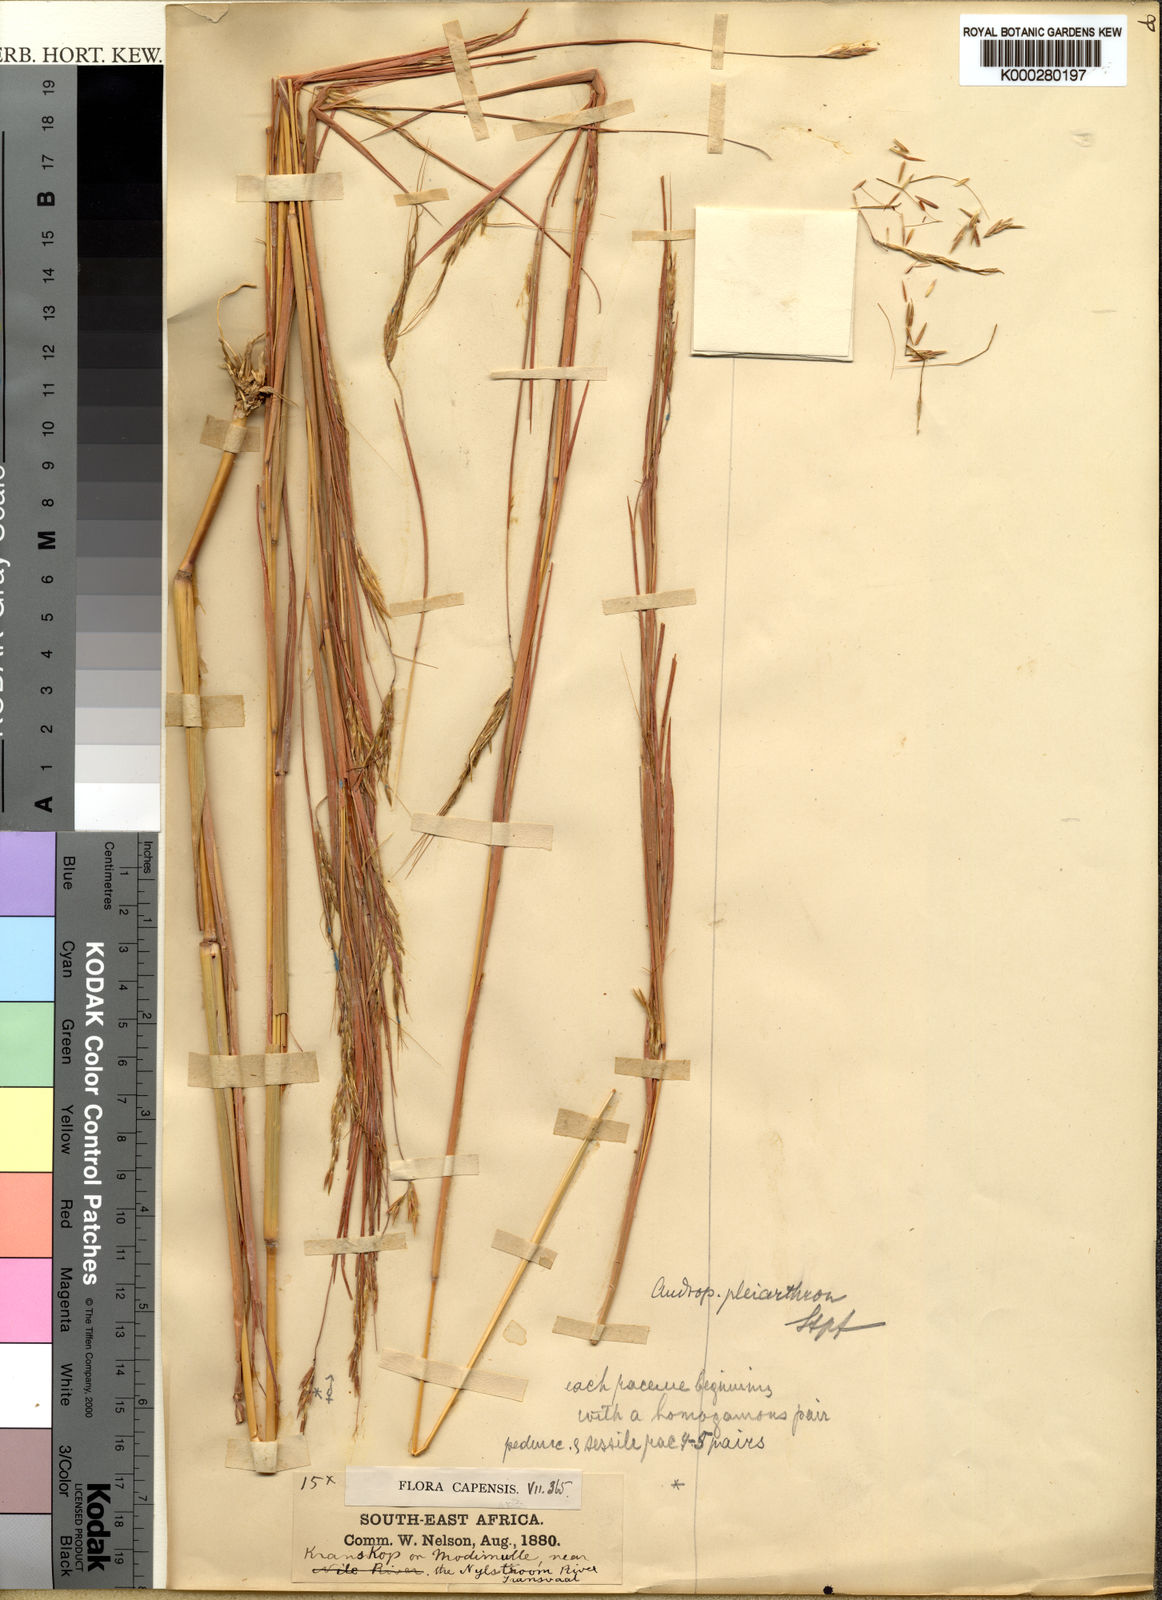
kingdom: Plantae
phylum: Tracheophyta
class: Liliopsida
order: Poales
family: Poaceae
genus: Hyparrhenia
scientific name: Hyparrhenia poecilotricha
